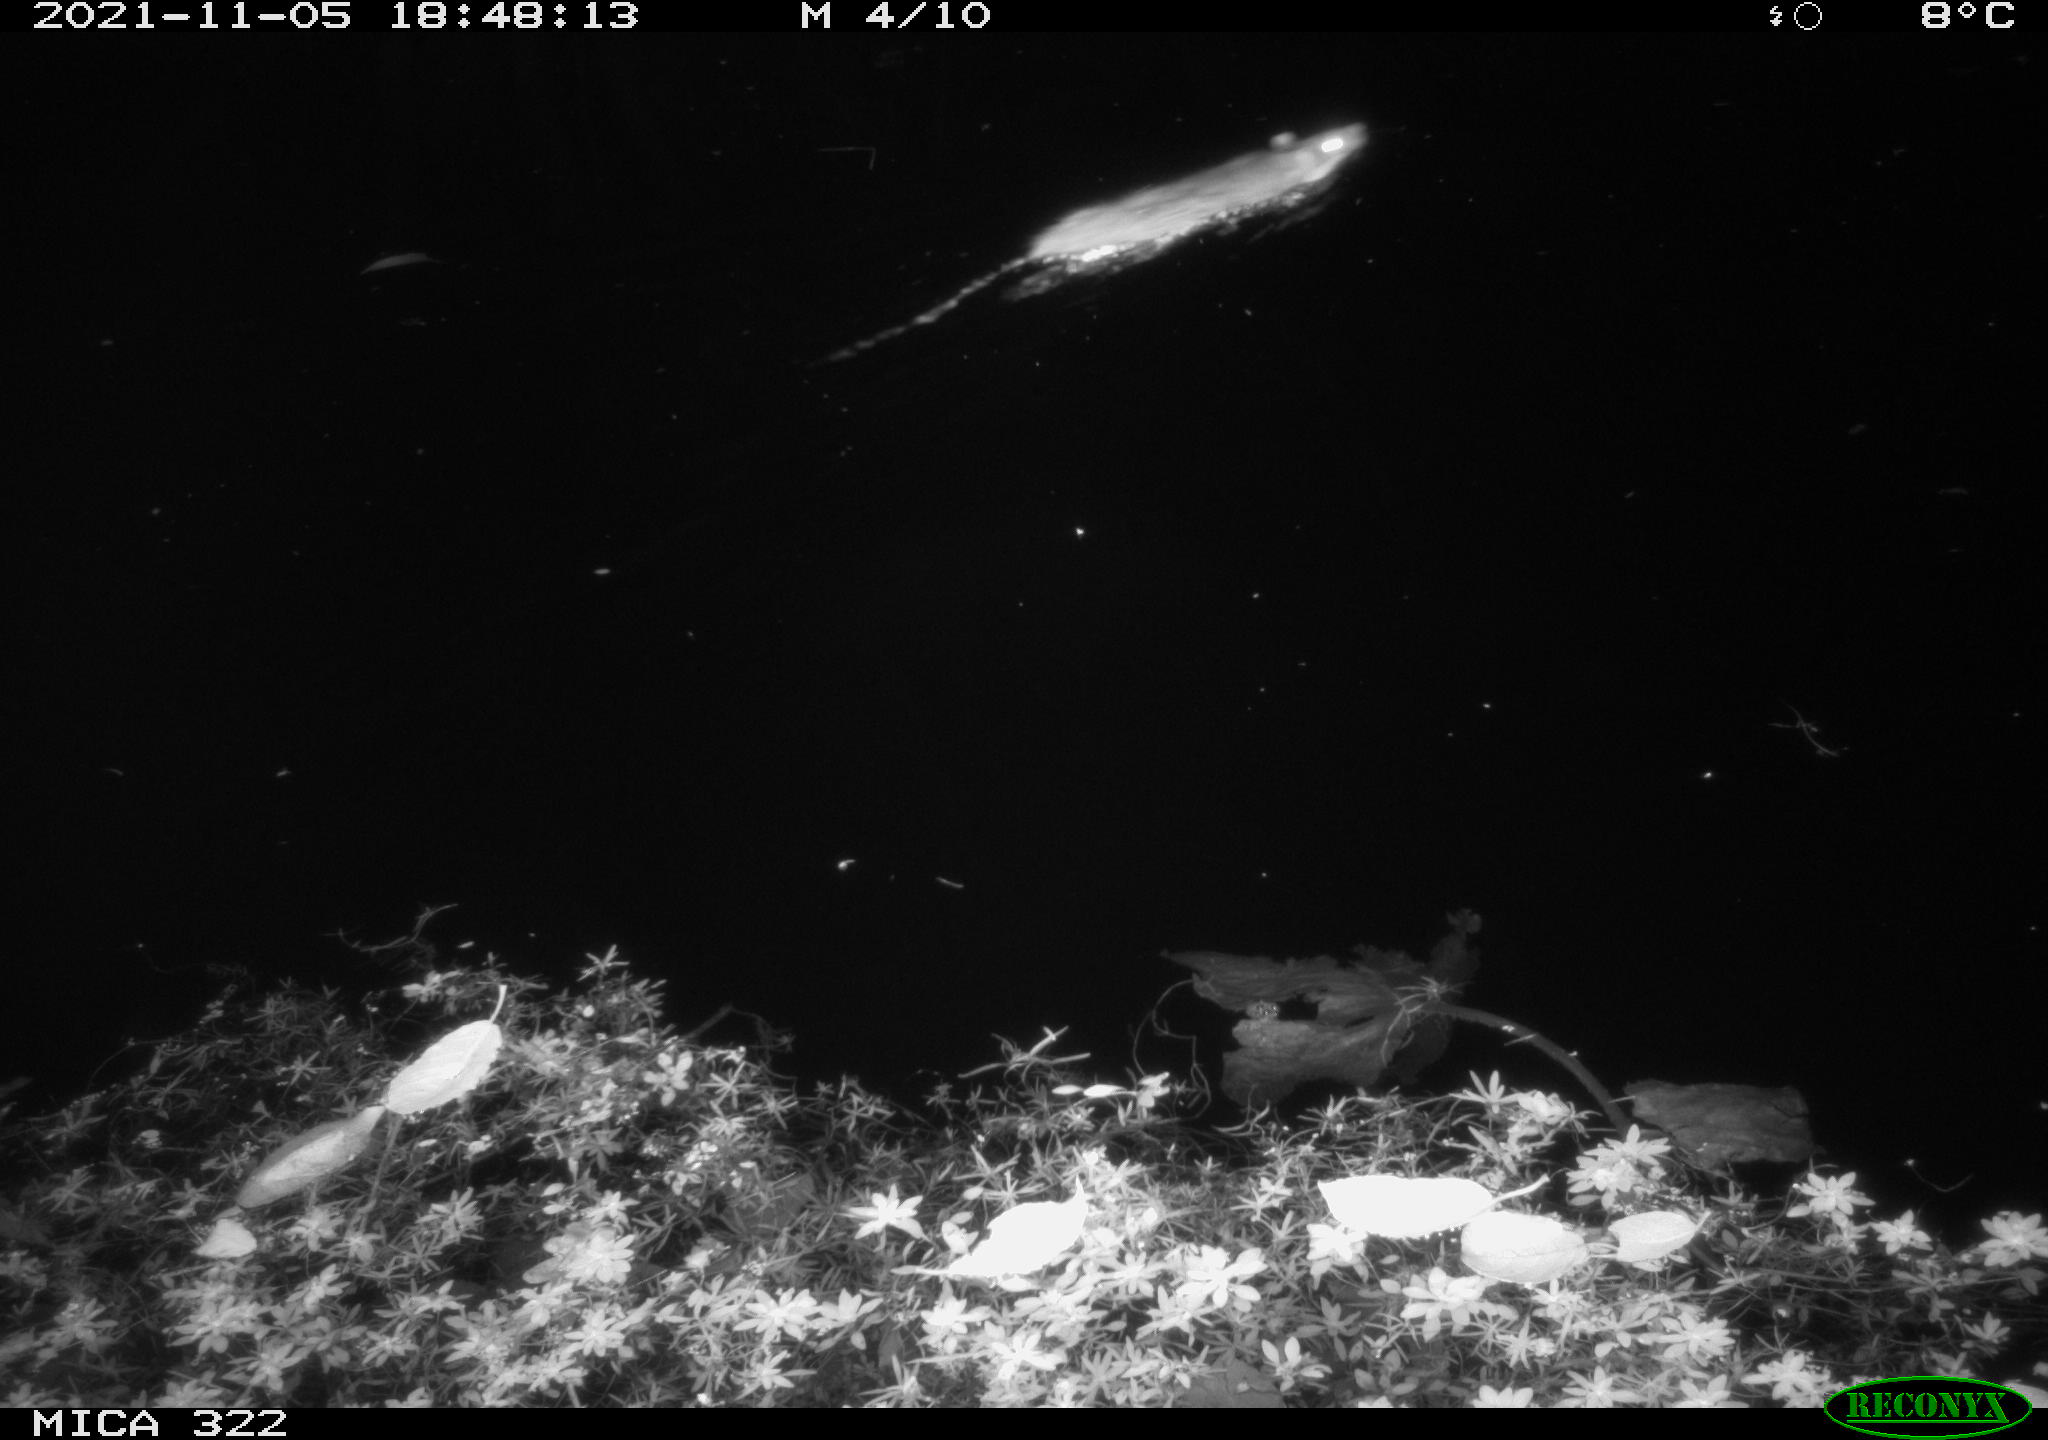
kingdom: Animalia
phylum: Chordata
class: Mammalia
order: Rodentia
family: Muridae
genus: Rattus
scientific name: Rattus norvegicus
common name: Brown rat
